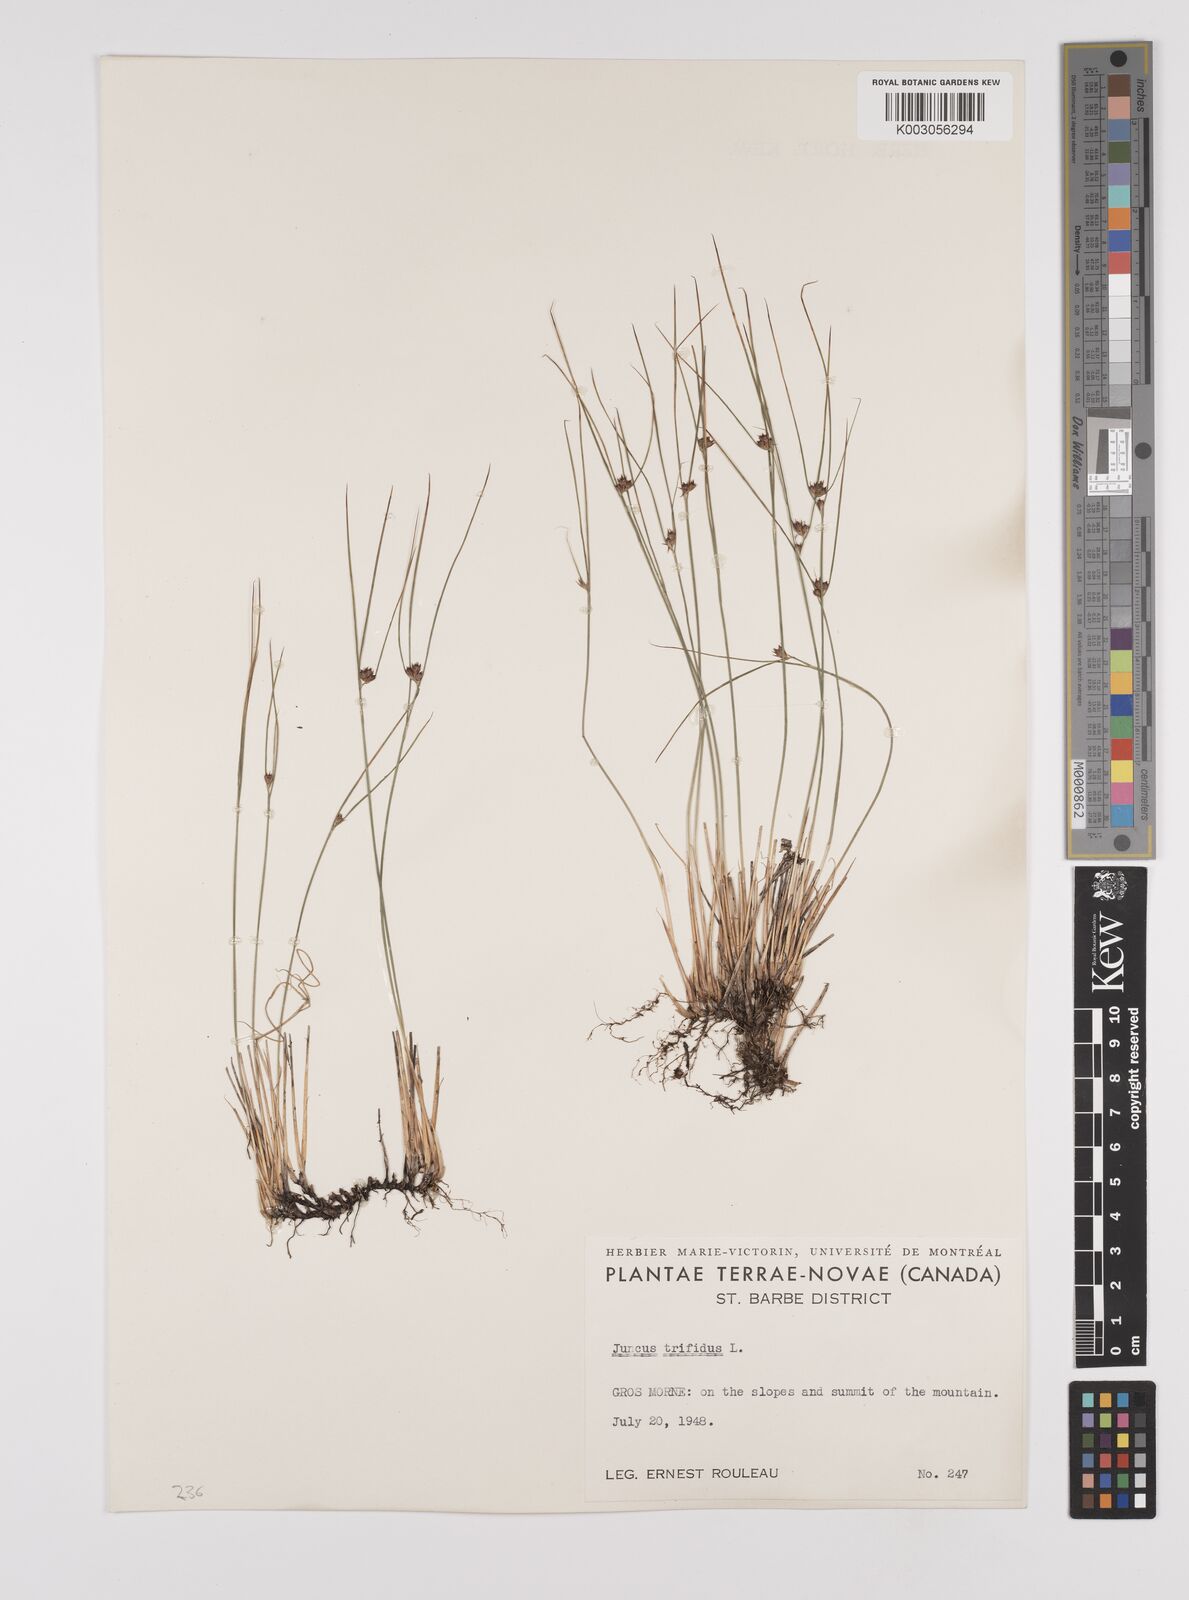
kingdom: Plantae
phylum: Tracheophyta
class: Liliopsida
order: Poales
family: Juncaceae
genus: Oreojuncus
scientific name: Oreojuncus trifidus
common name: Highland rush
